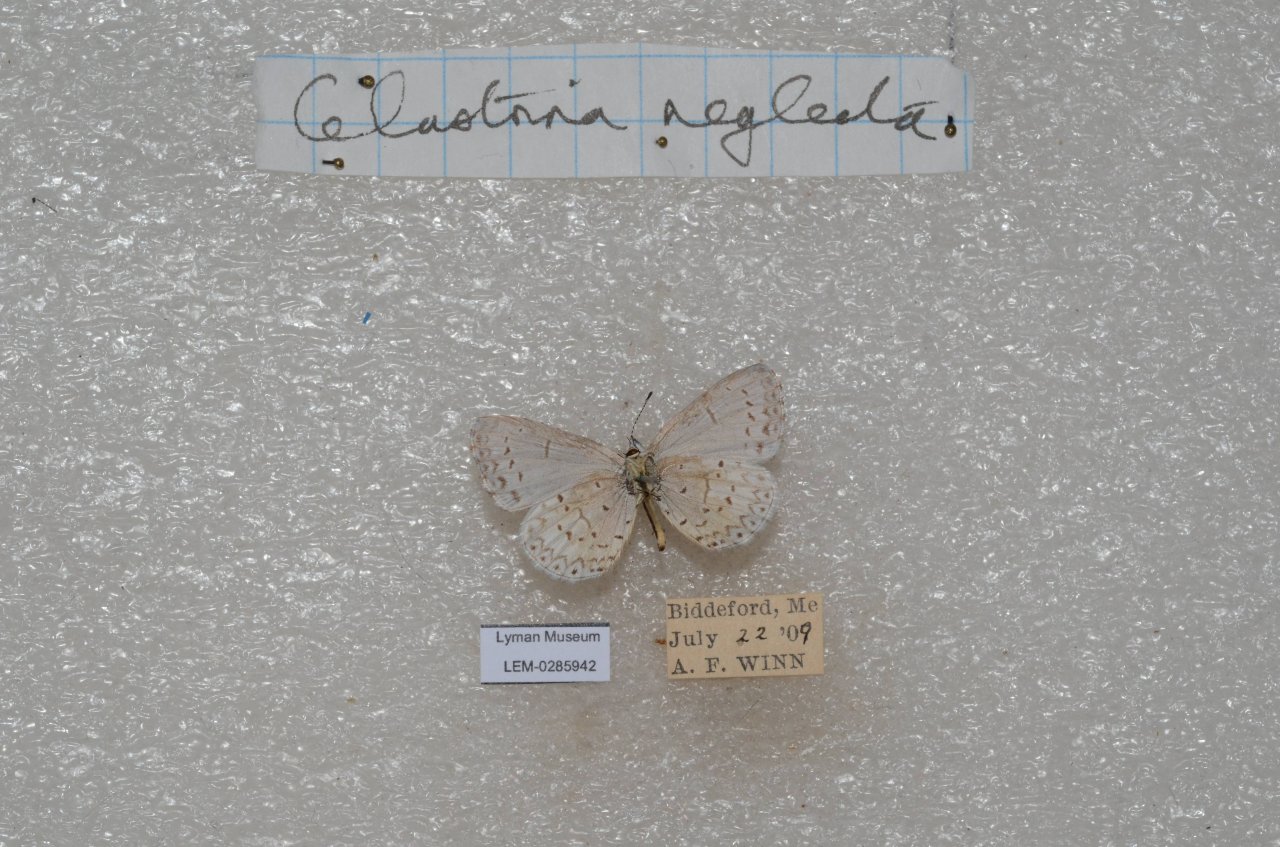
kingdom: Animalia
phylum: Arthropoda
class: Insecta
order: Lepidoptera
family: Lycaenidae
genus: Cyaniris
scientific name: Cyaniris neglecta
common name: Summer Azure
